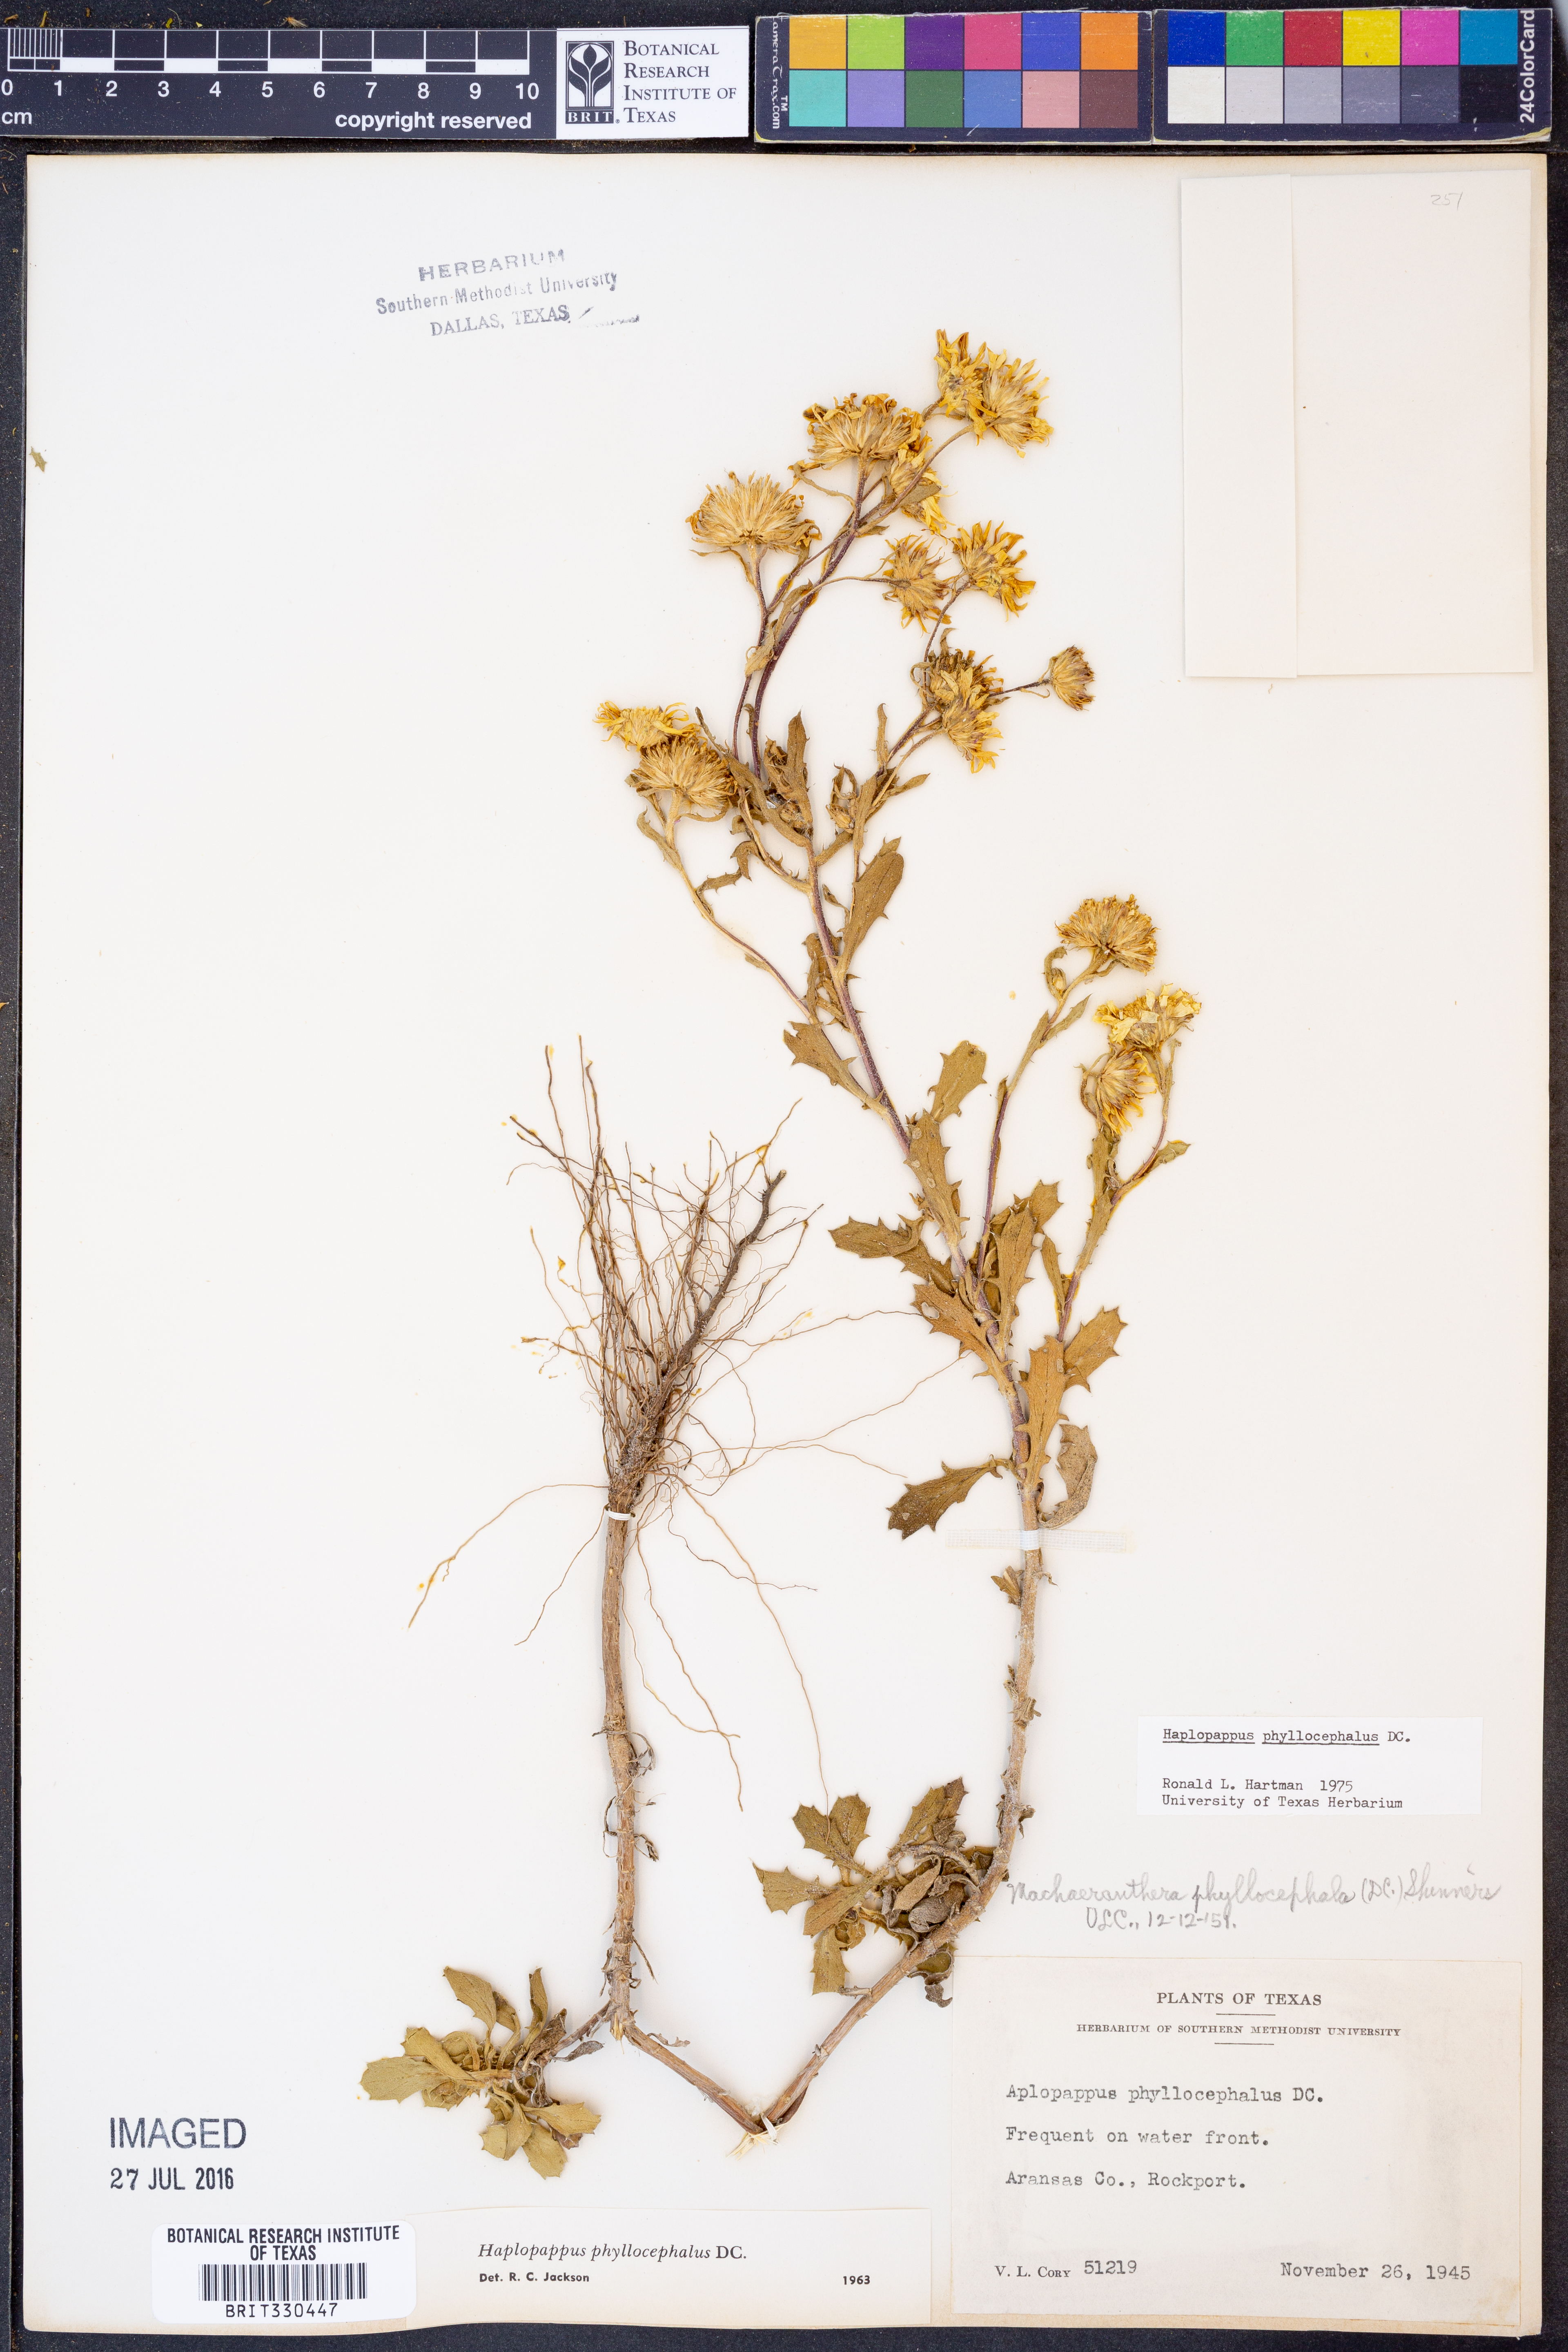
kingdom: Plantae
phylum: Tracheophyta
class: Magnoliopsida
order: Asterales
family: Asteraceae
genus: Rayjacksonia
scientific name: Rayjacksonia phyllocephala
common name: Gulf coast camphor daisy
